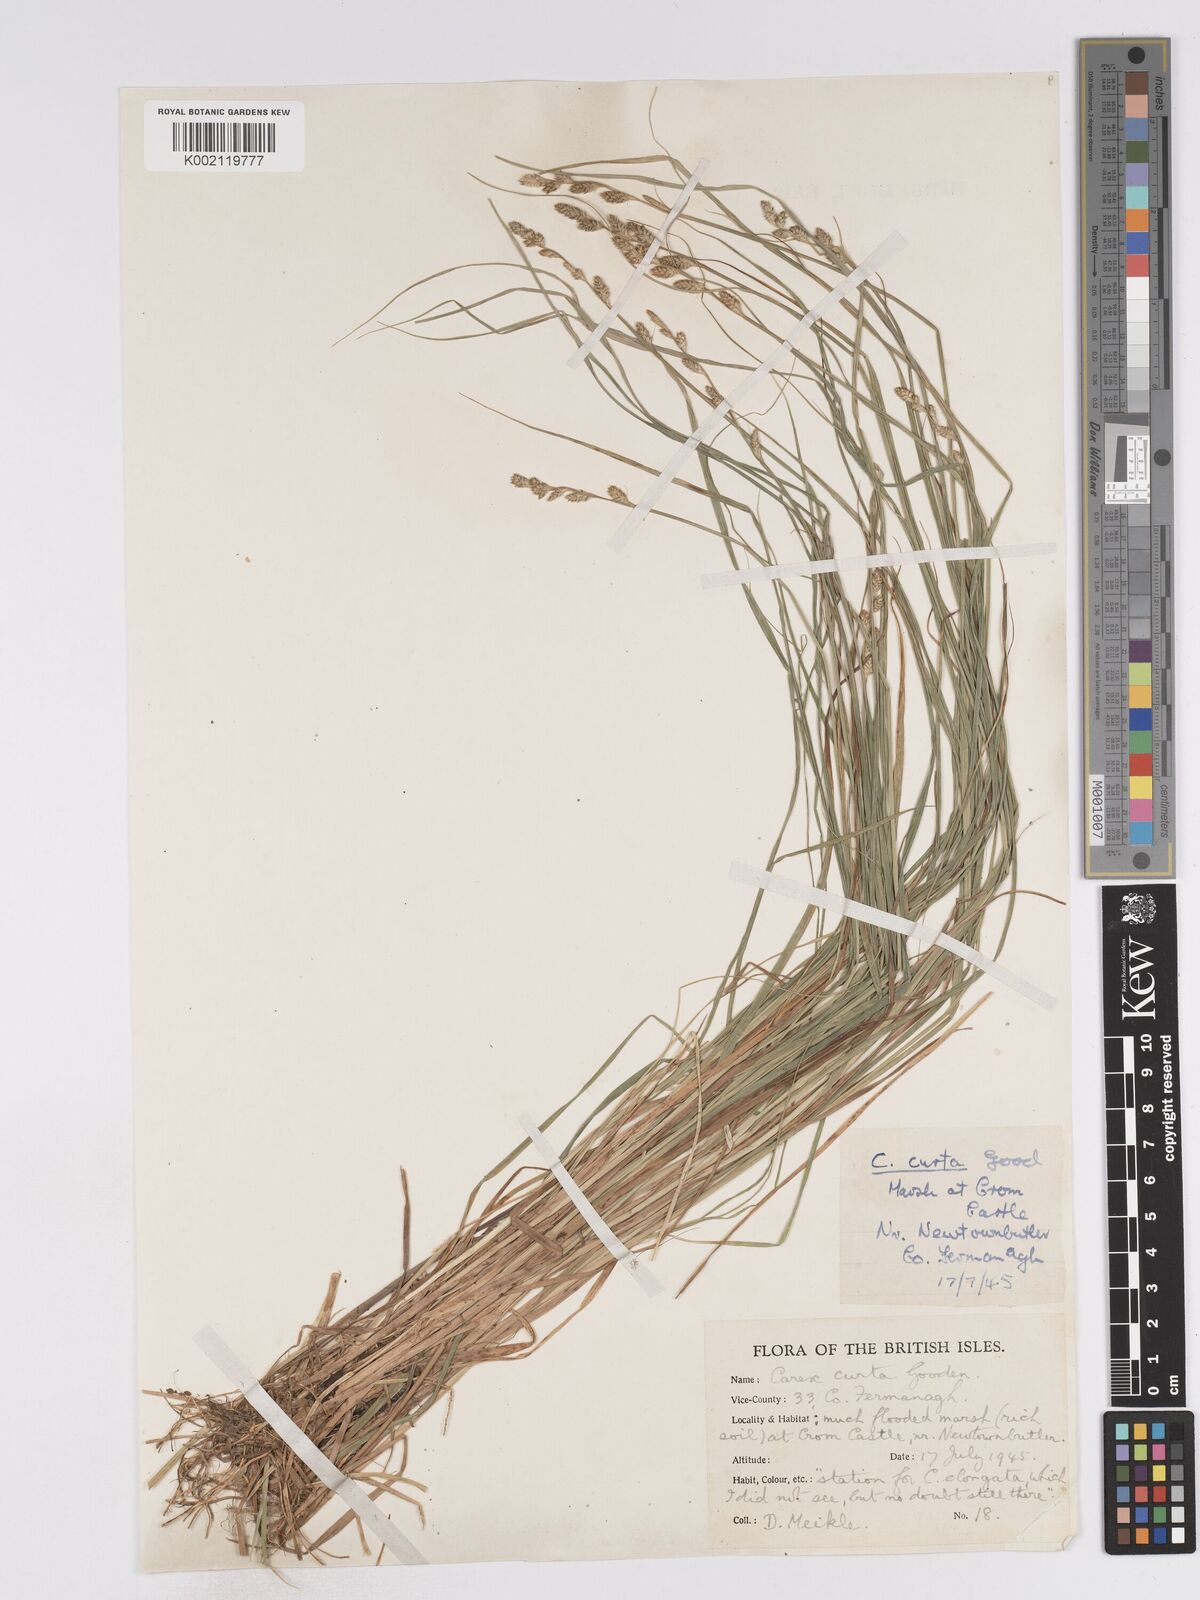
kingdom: Plantae
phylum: Tracheophyta
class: Liliopsida
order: Poales
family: Cyperaceae
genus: Carex
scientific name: Carex curta
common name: White sedge
